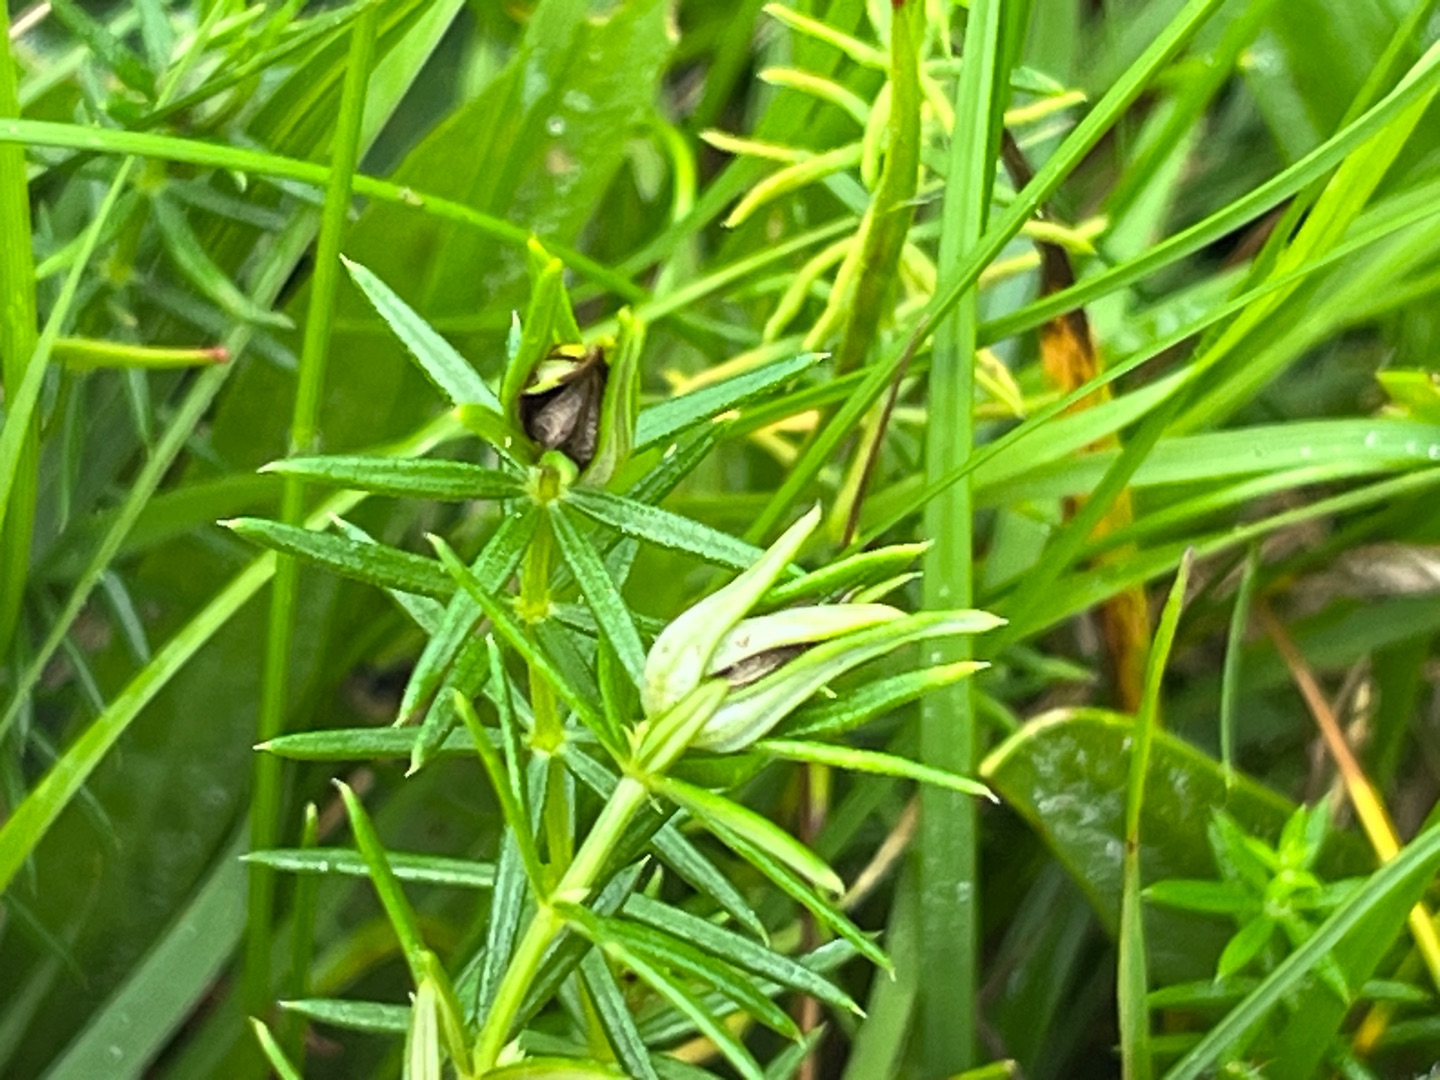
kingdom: Animalia
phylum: Arthropoda
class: Insecta
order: Diptera
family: Cecidomyiidae
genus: Contarinia
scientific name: Contarinia vera
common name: Snurretopgalmyg
